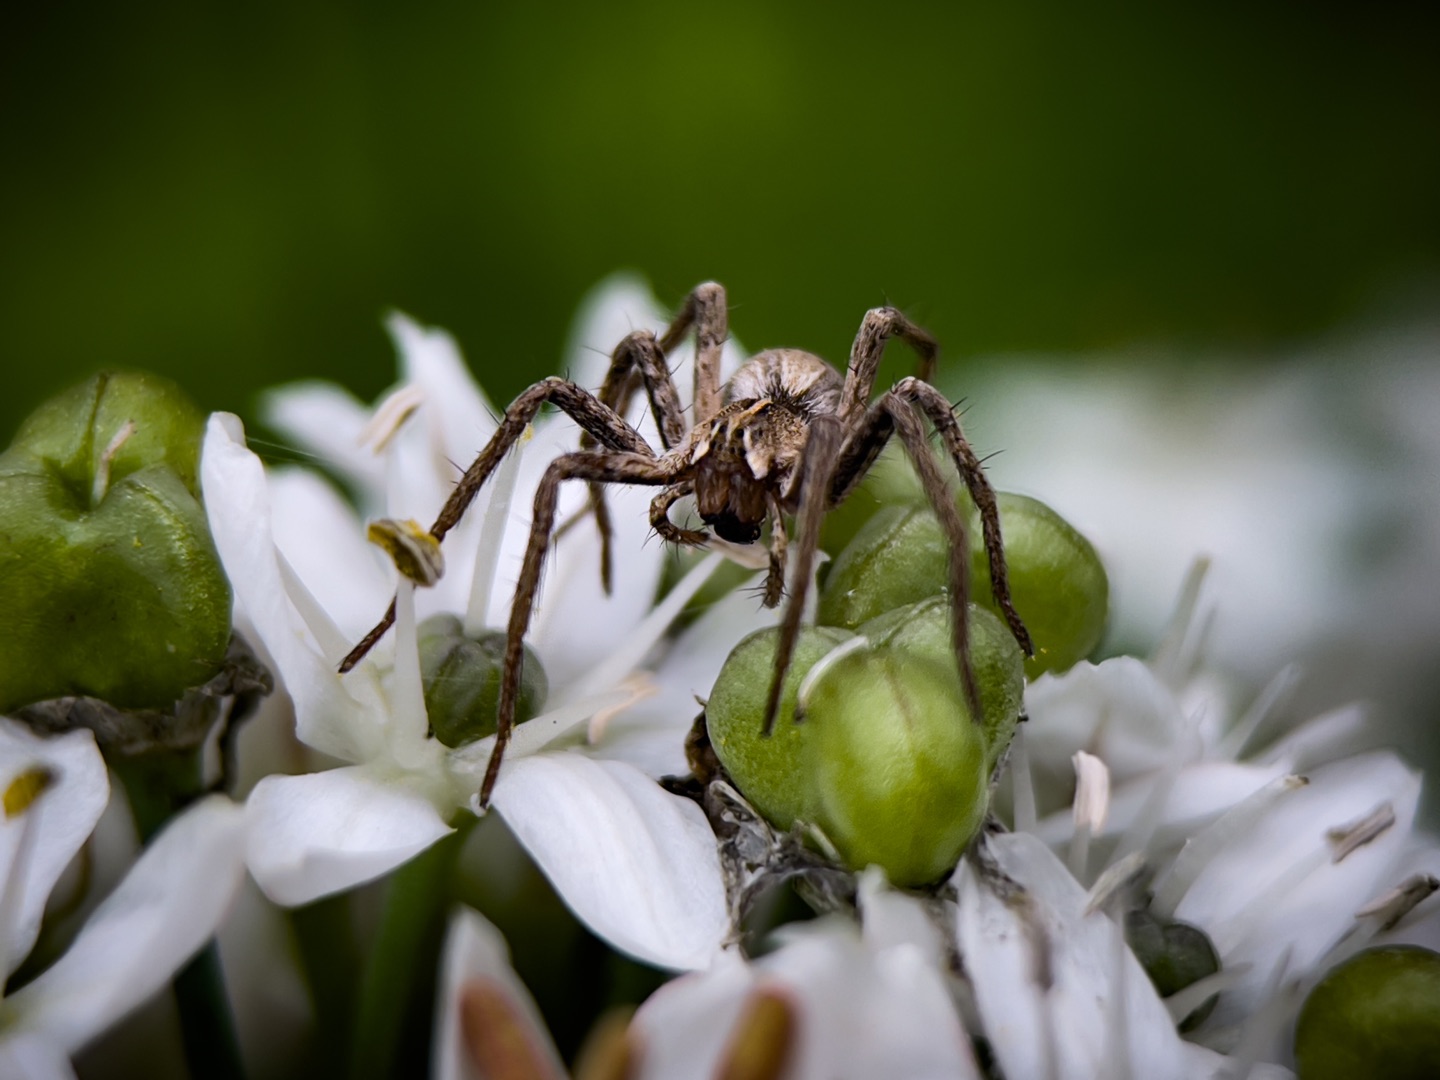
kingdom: Animalia
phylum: Arthropoda
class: Arachnida
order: Araneae
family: Pisauridae
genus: Pisaura
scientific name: Pisaura mirabilis
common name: Almindelig rovedderkop
